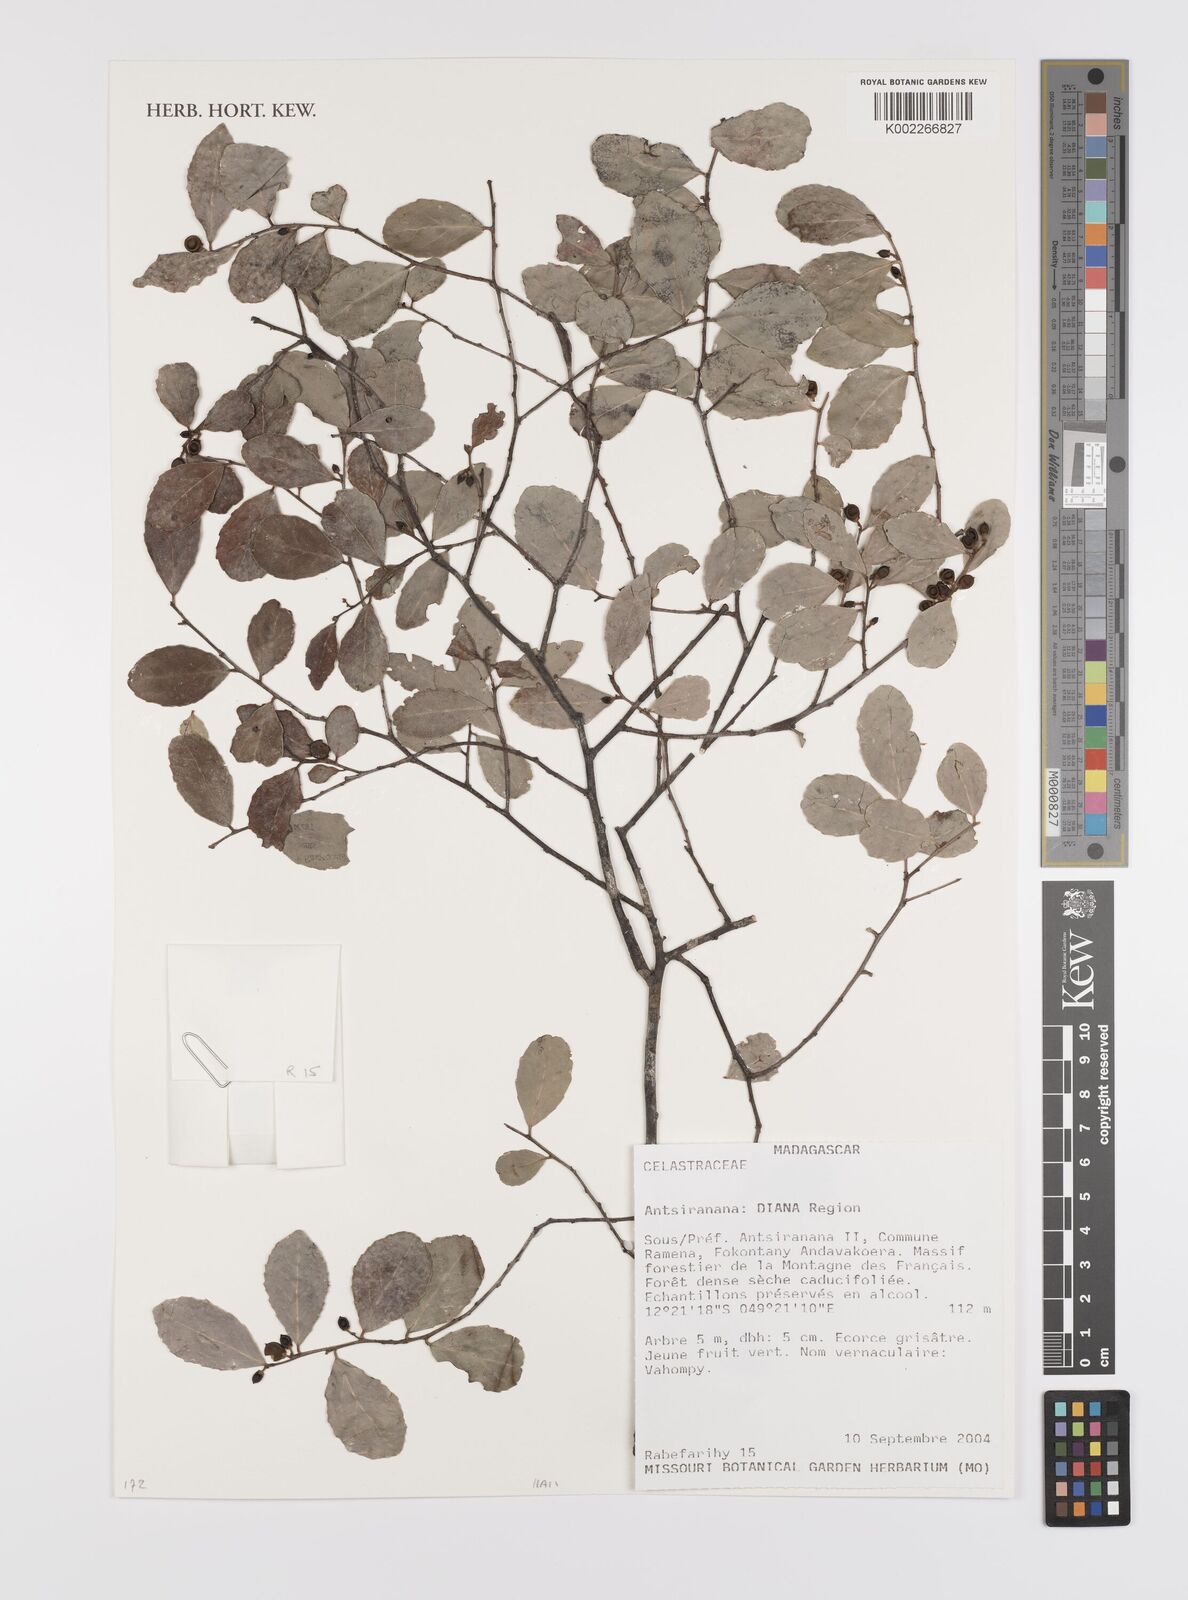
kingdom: Plantae
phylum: Tracheophyta
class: Magnoliopsida
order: Celastrales
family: Celastraceae
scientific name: Celastraceae
